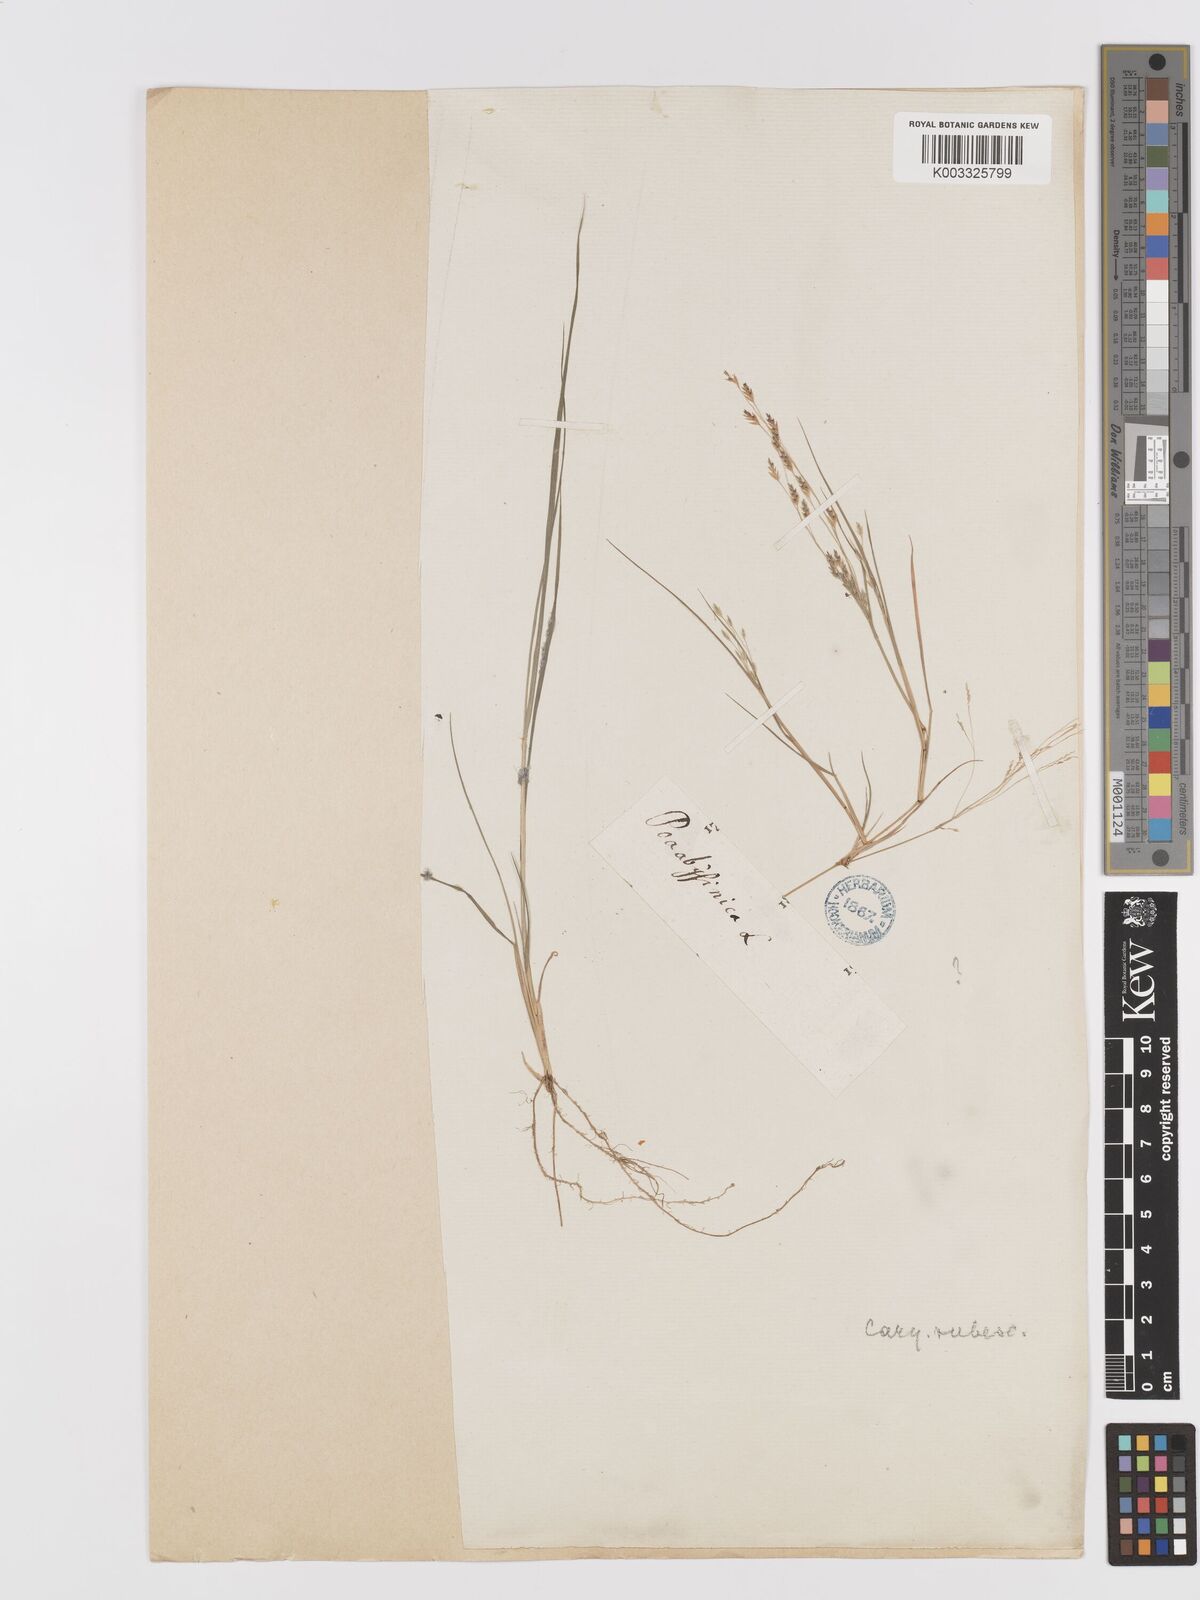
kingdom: Plantae
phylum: Tracheophyta
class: Liliopsida
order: Poales
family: Poaceae
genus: Eragrostis
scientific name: Eragrostis tef
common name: Teff
